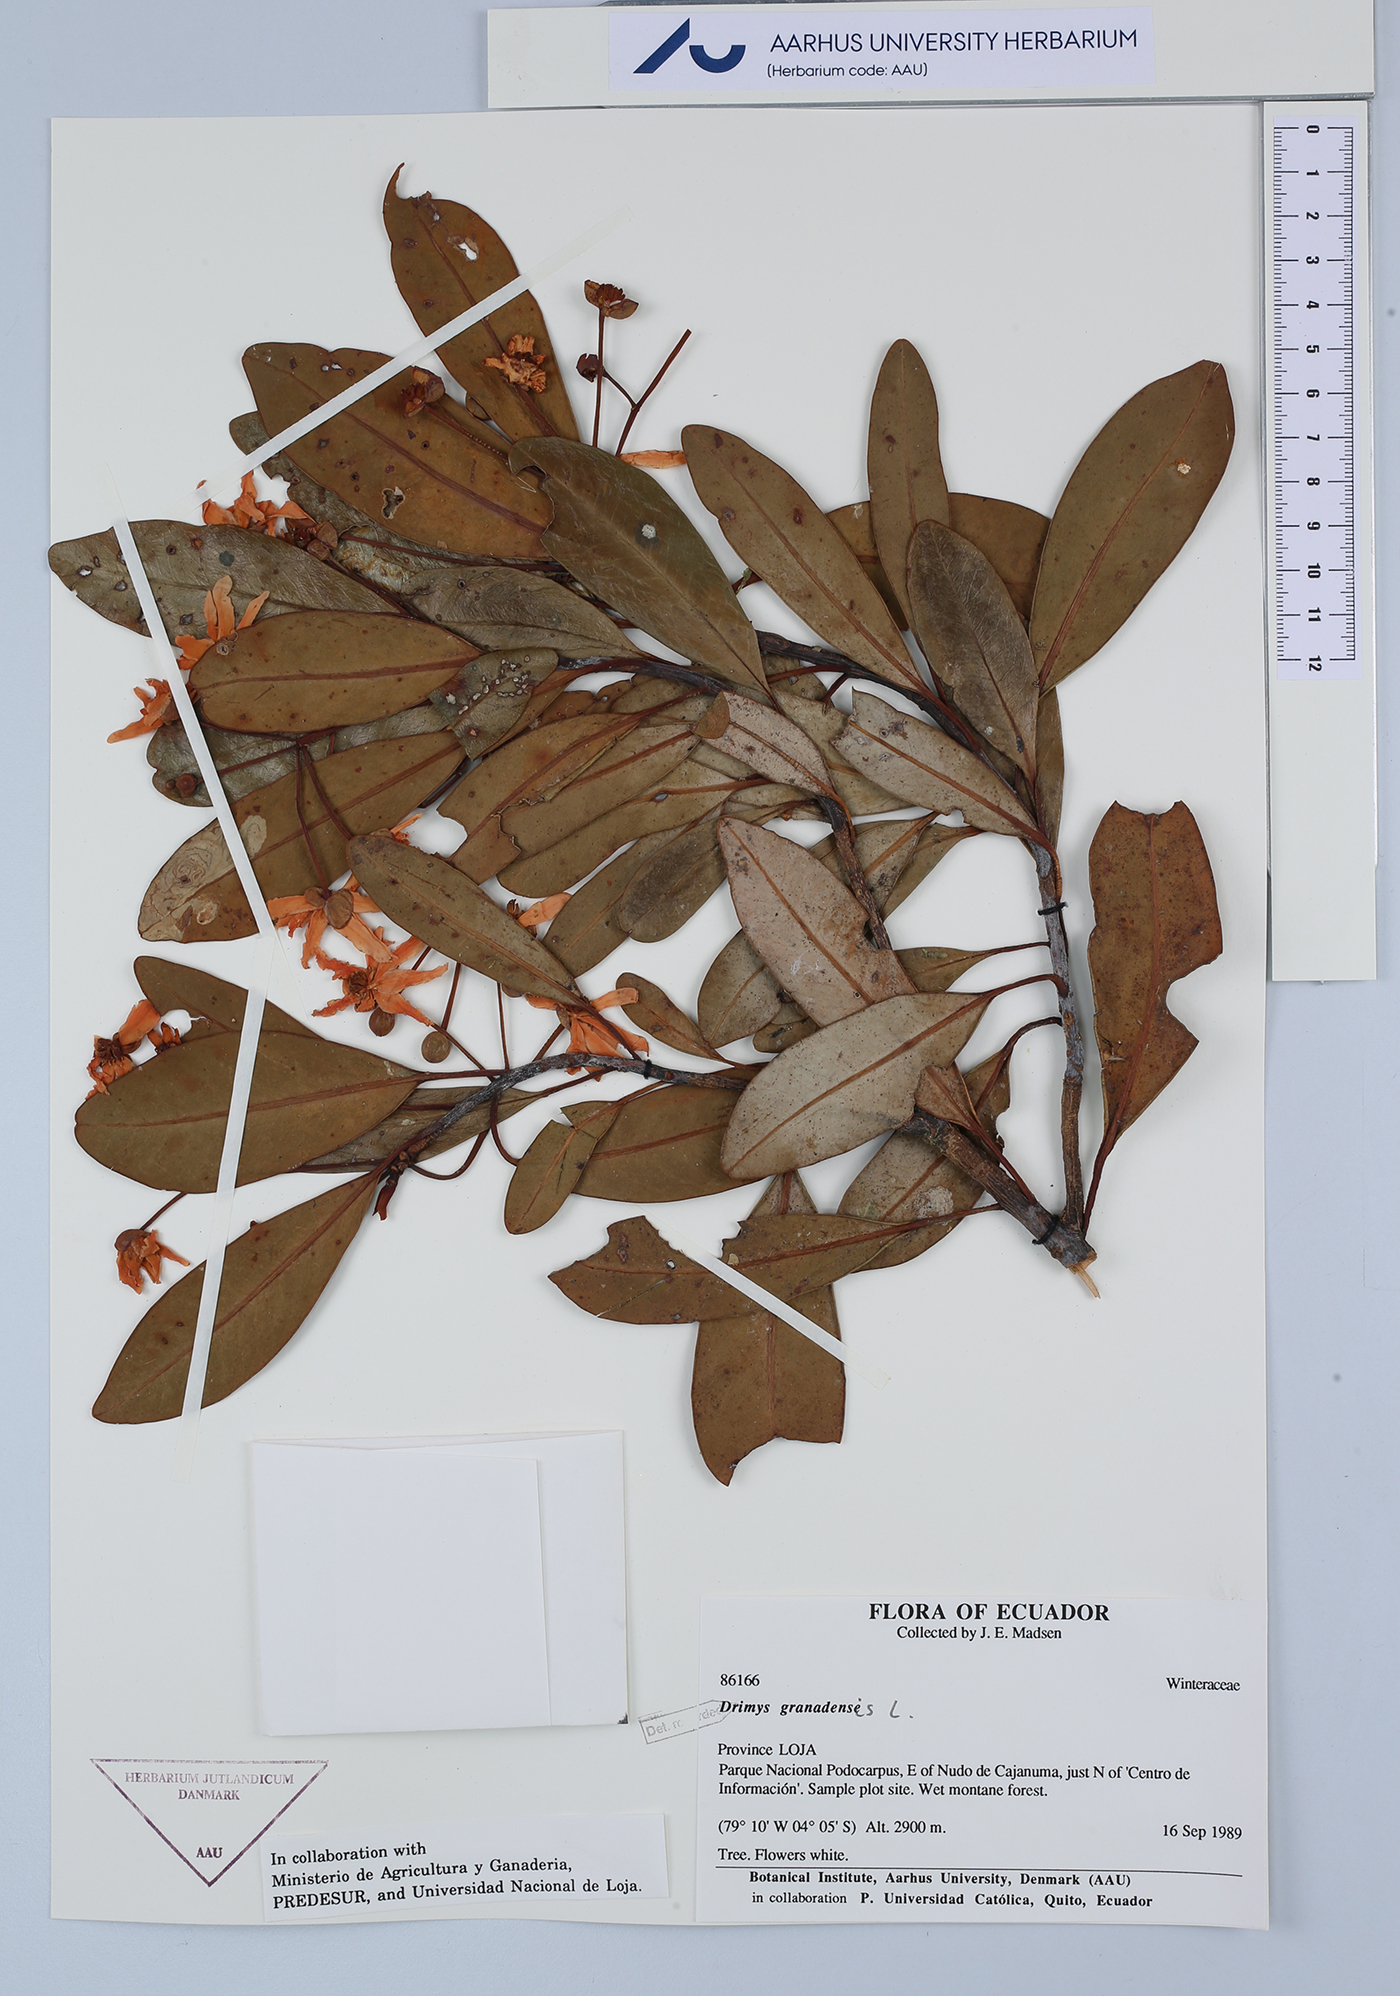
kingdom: Plantae
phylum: Tracheophyta
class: Magnoliopsida
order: Canellales
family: Winteraceae
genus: Drimys
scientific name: Drimys granadensis
